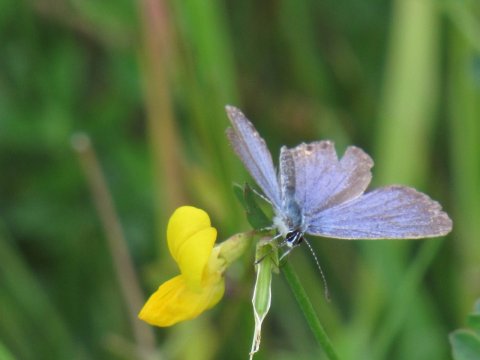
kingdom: Animalia
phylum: Arthropoda
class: Insecta
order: Lepidoptera
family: Lycaenidae
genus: Elkalyce
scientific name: Elkalyce comyntas
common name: Eastern Tailed-Blue
